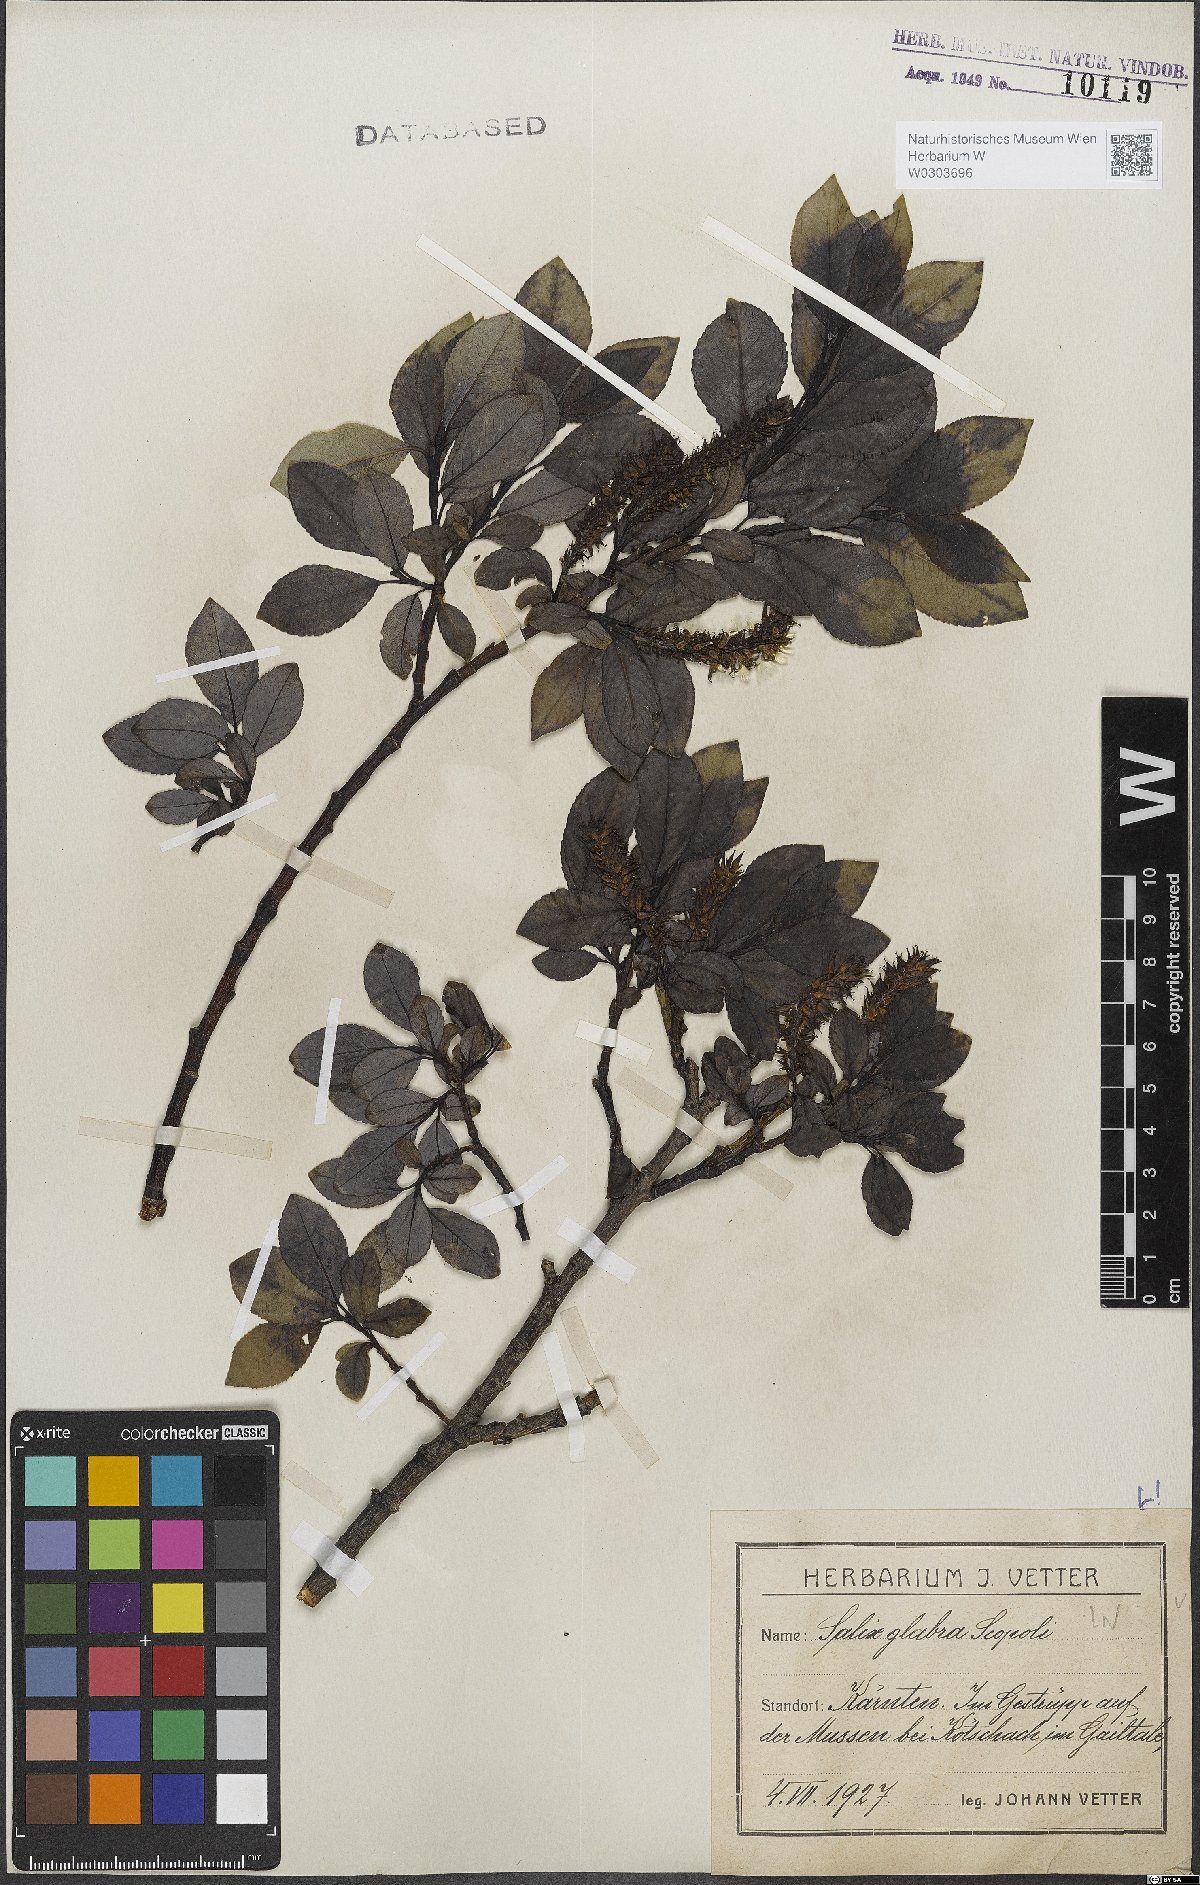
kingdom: Plantae
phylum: Tracheophyta
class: Magnoliopsida
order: Malpighiales
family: Salicaceae
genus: Salix
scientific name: Salix glabra
